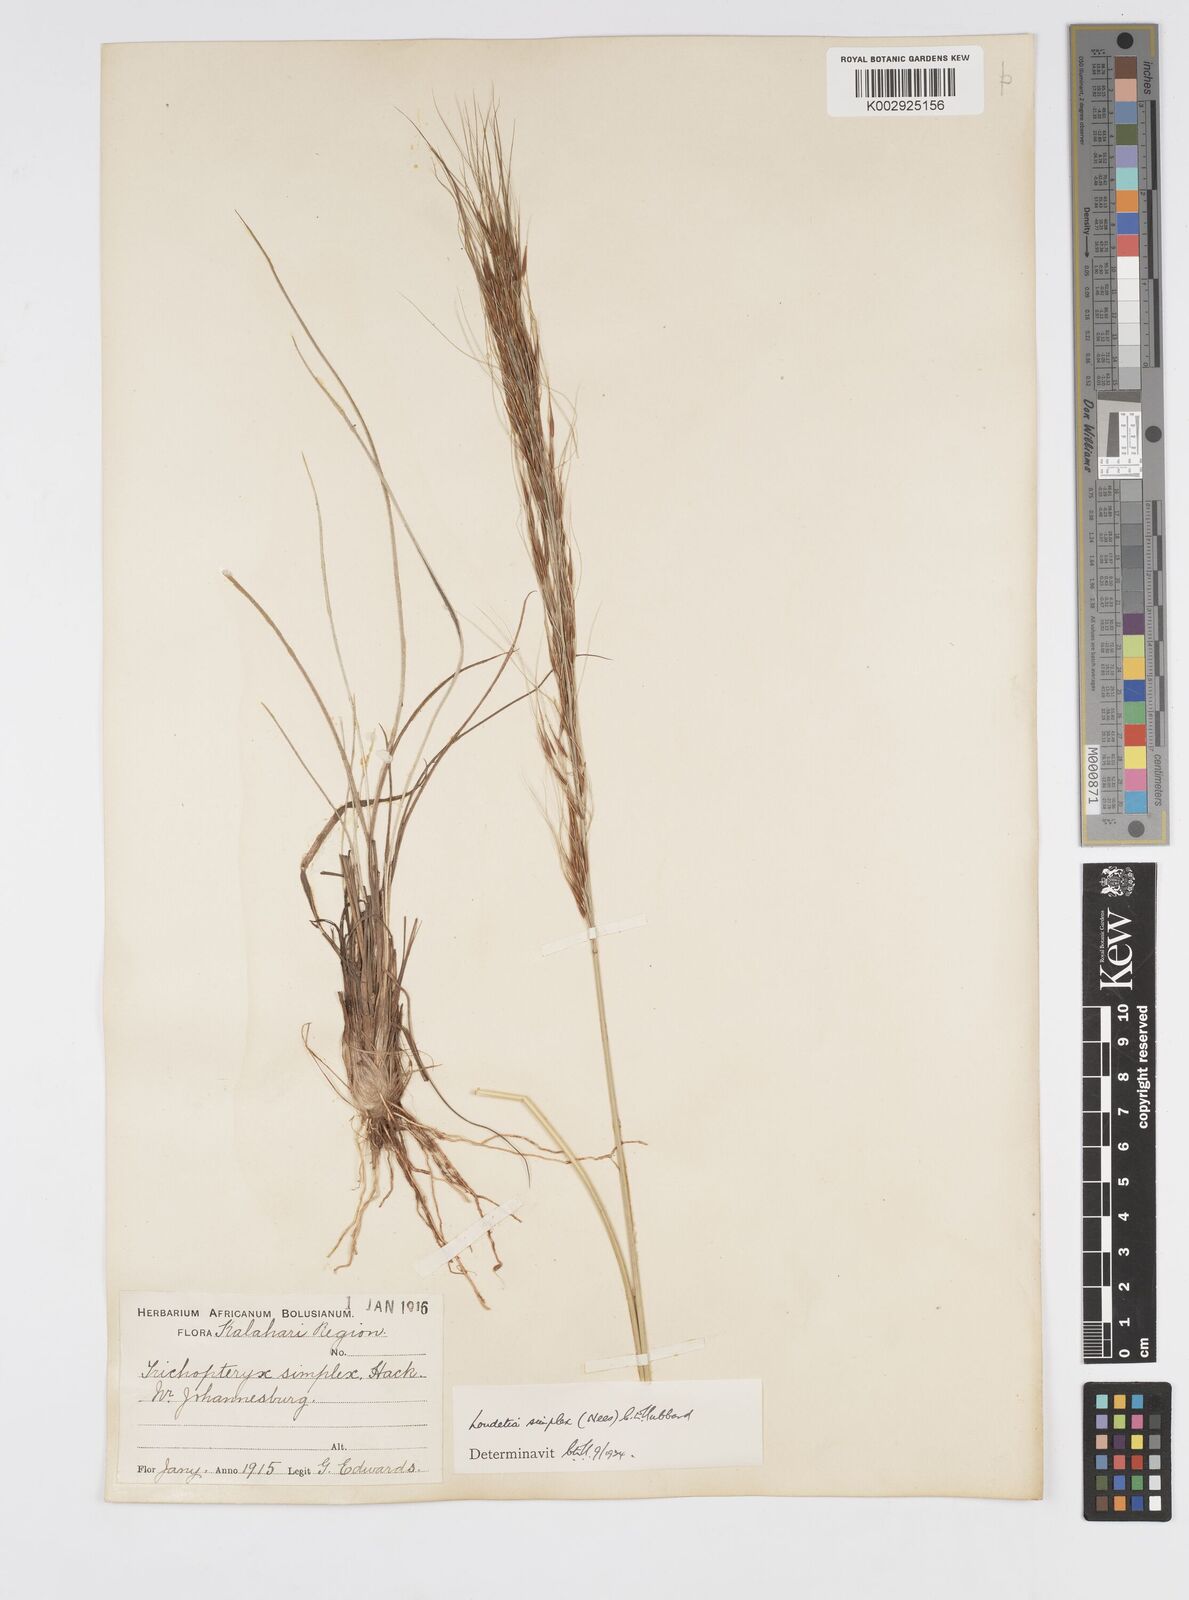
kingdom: Plantae
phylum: Tracheophyta
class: Liliopsida
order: Poales
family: Poaceae
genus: Loudetia
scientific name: Loudetia simplex
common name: Common russet grass
